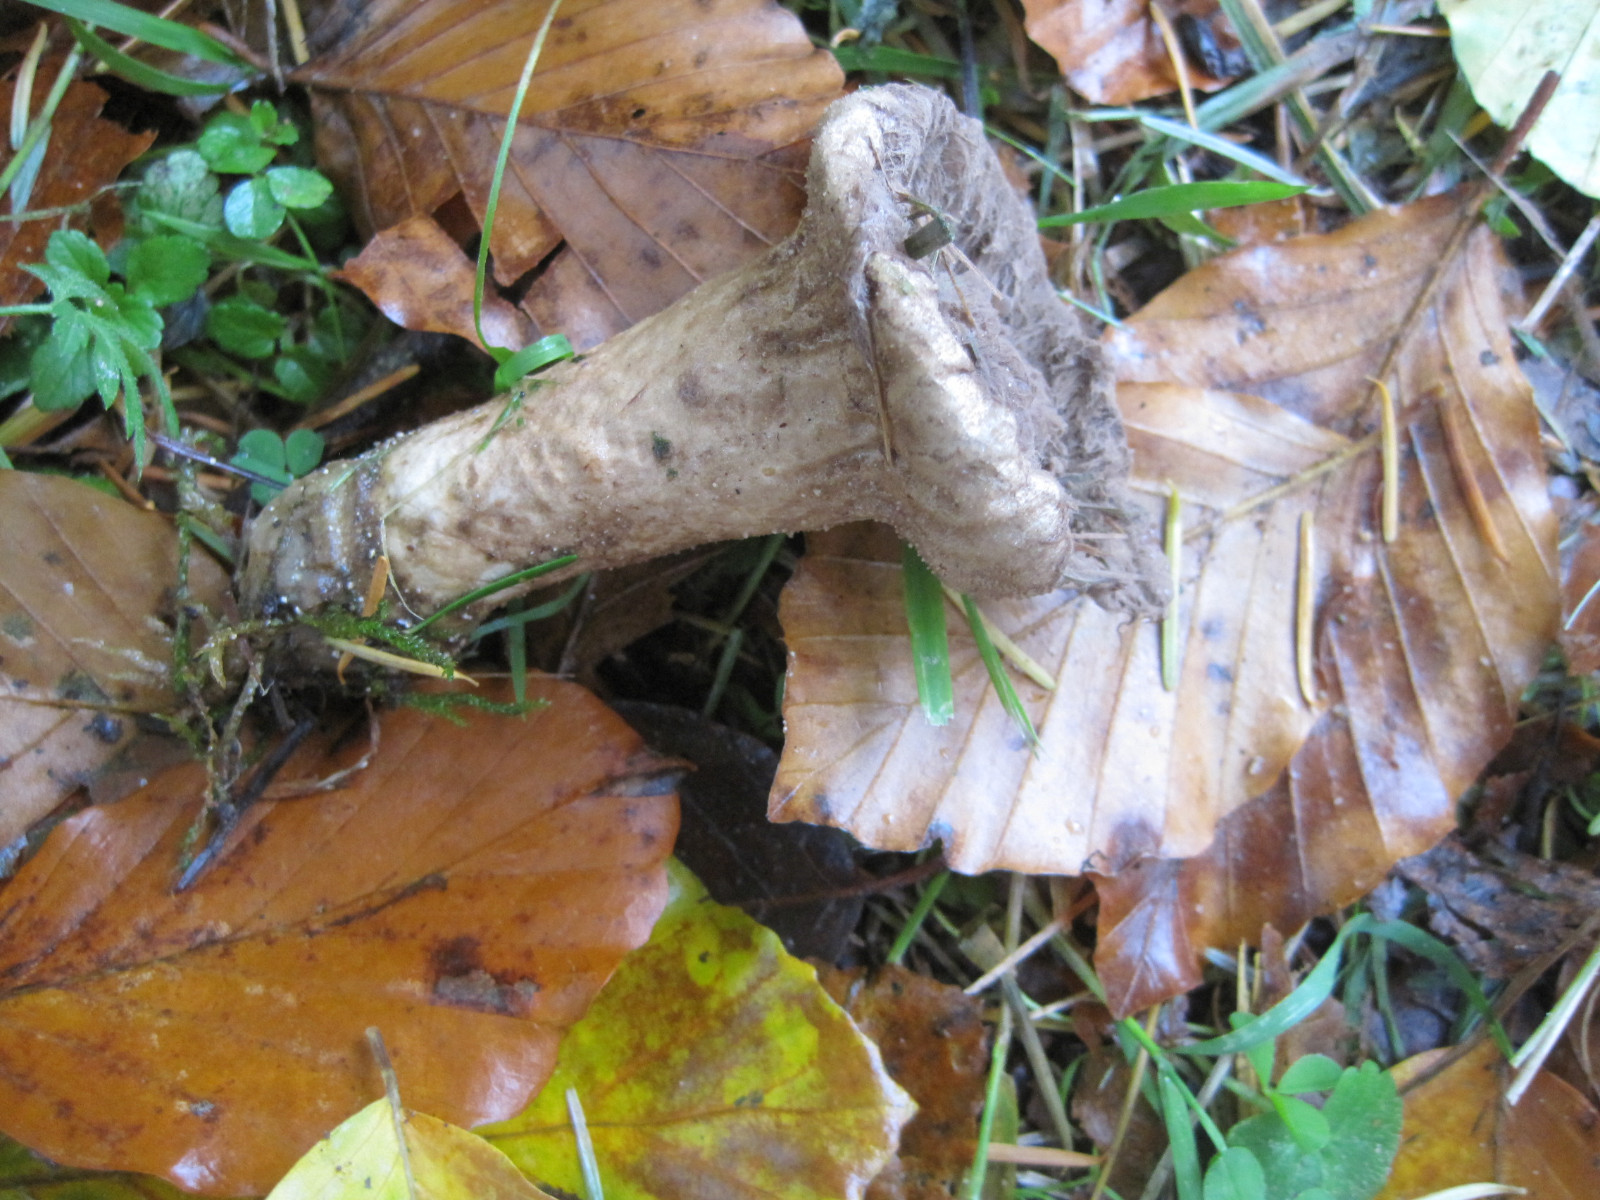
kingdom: Fungi
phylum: Basidiomycota
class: Agaricomycetes
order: Agaricales
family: Lycoperdaceae
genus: Lycoperdon
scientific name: Lycoperdon excipuliforme
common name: højstokket støvbold
